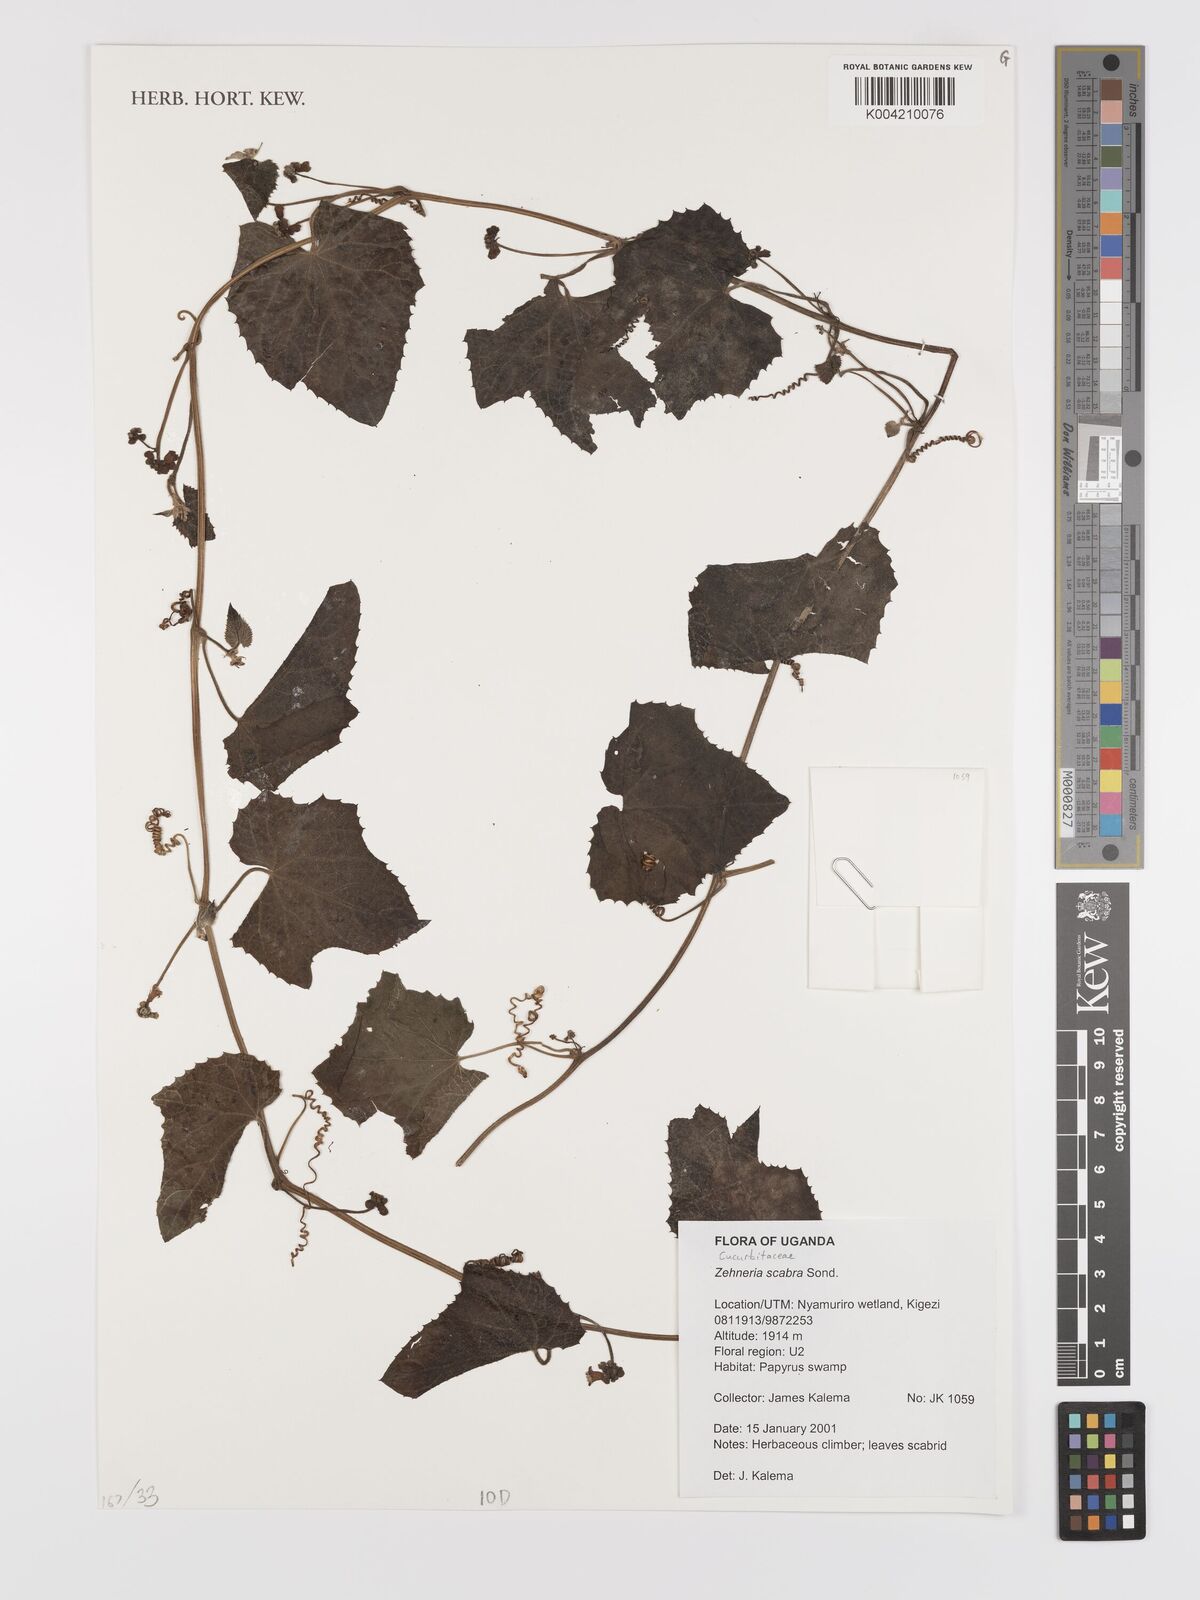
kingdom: Plantae
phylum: Tracheophyta
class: Magnoliopsida
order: Cucurbitales
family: Cucurbitaceae
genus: Zehneria
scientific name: Zehneria scabra
